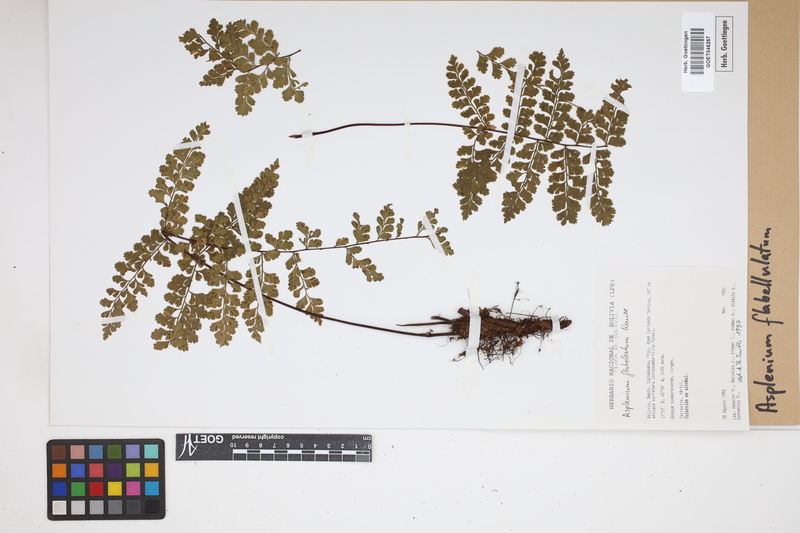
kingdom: Plantae
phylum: Tracheophyta
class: Polypodiopsida
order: Polypodiales
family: Aspleniaceae
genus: Asplenium
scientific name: Asplenium flabellulatum
